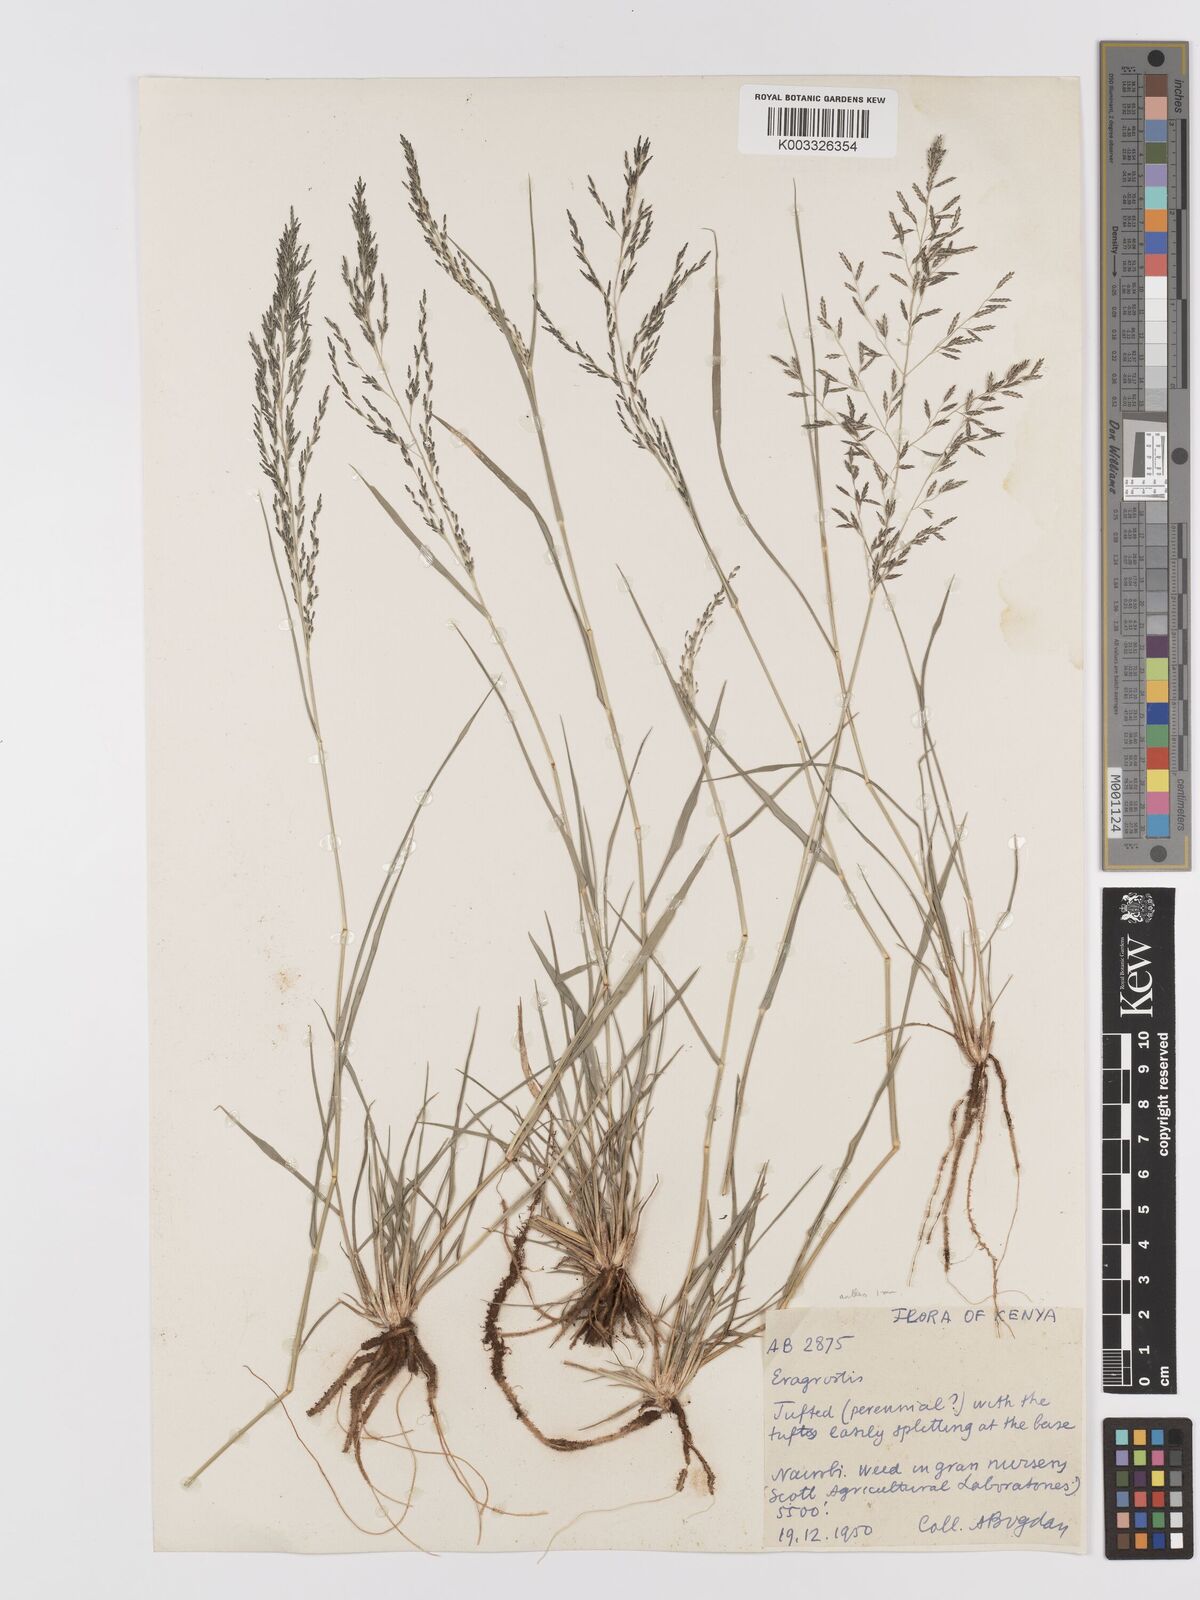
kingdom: Plantae
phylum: Tracheophyta
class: Liliopsida
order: Poales
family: Poaceae
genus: Eragrostis
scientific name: Eragrostis lehmanniana
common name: Lehmann lovegrass
